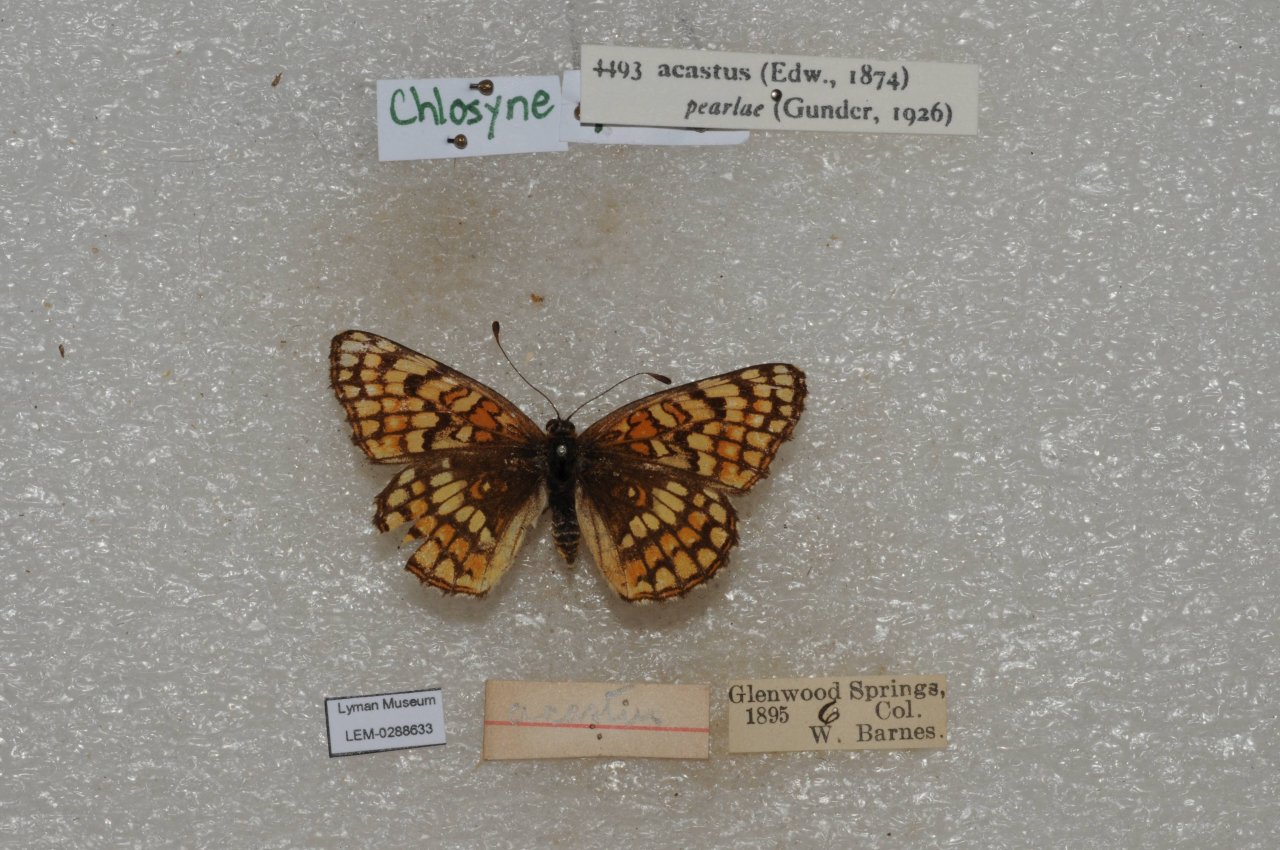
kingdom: Animalia
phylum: Arthropoda
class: Insecta
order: Lepidoptera
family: Nymphalidae
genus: Chlosyne
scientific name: Chlosyne acastus
